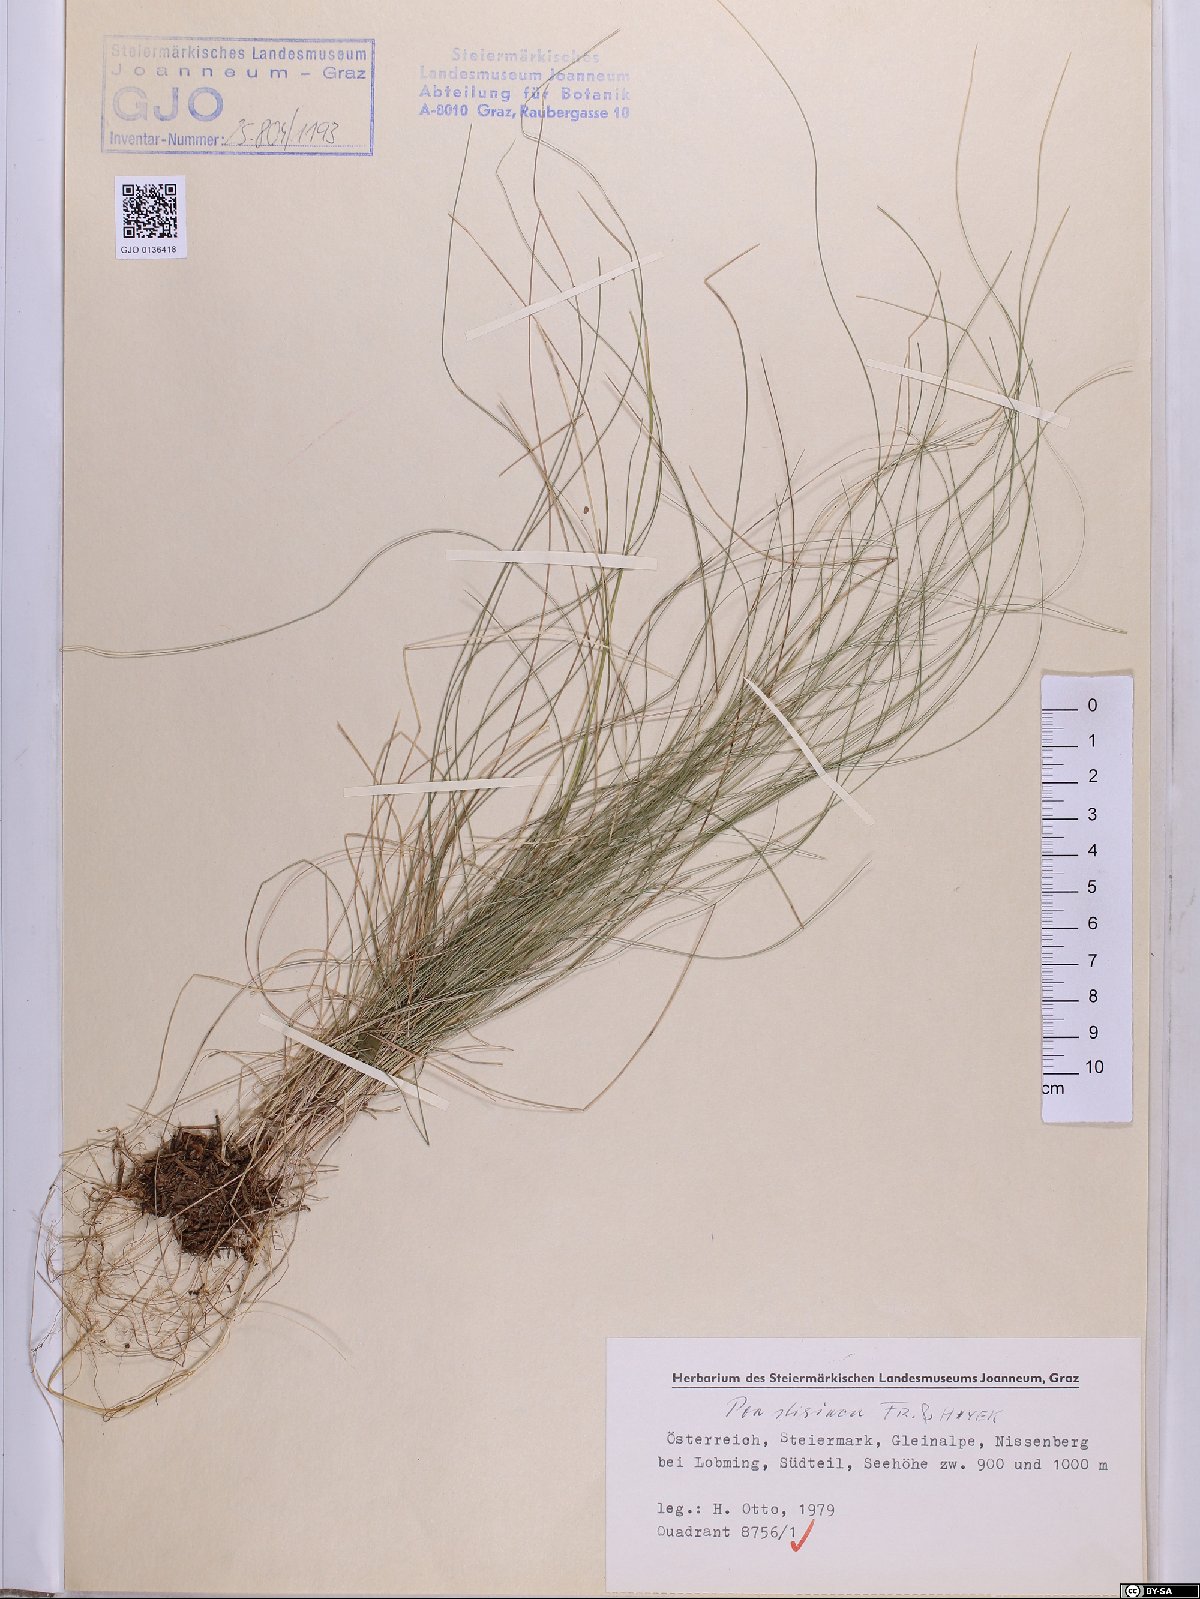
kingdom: Plantae
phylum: Tracheophyta
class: Liliopsida
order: Poales
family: Poaceae
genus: Poa
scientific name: Poa stiriaca
